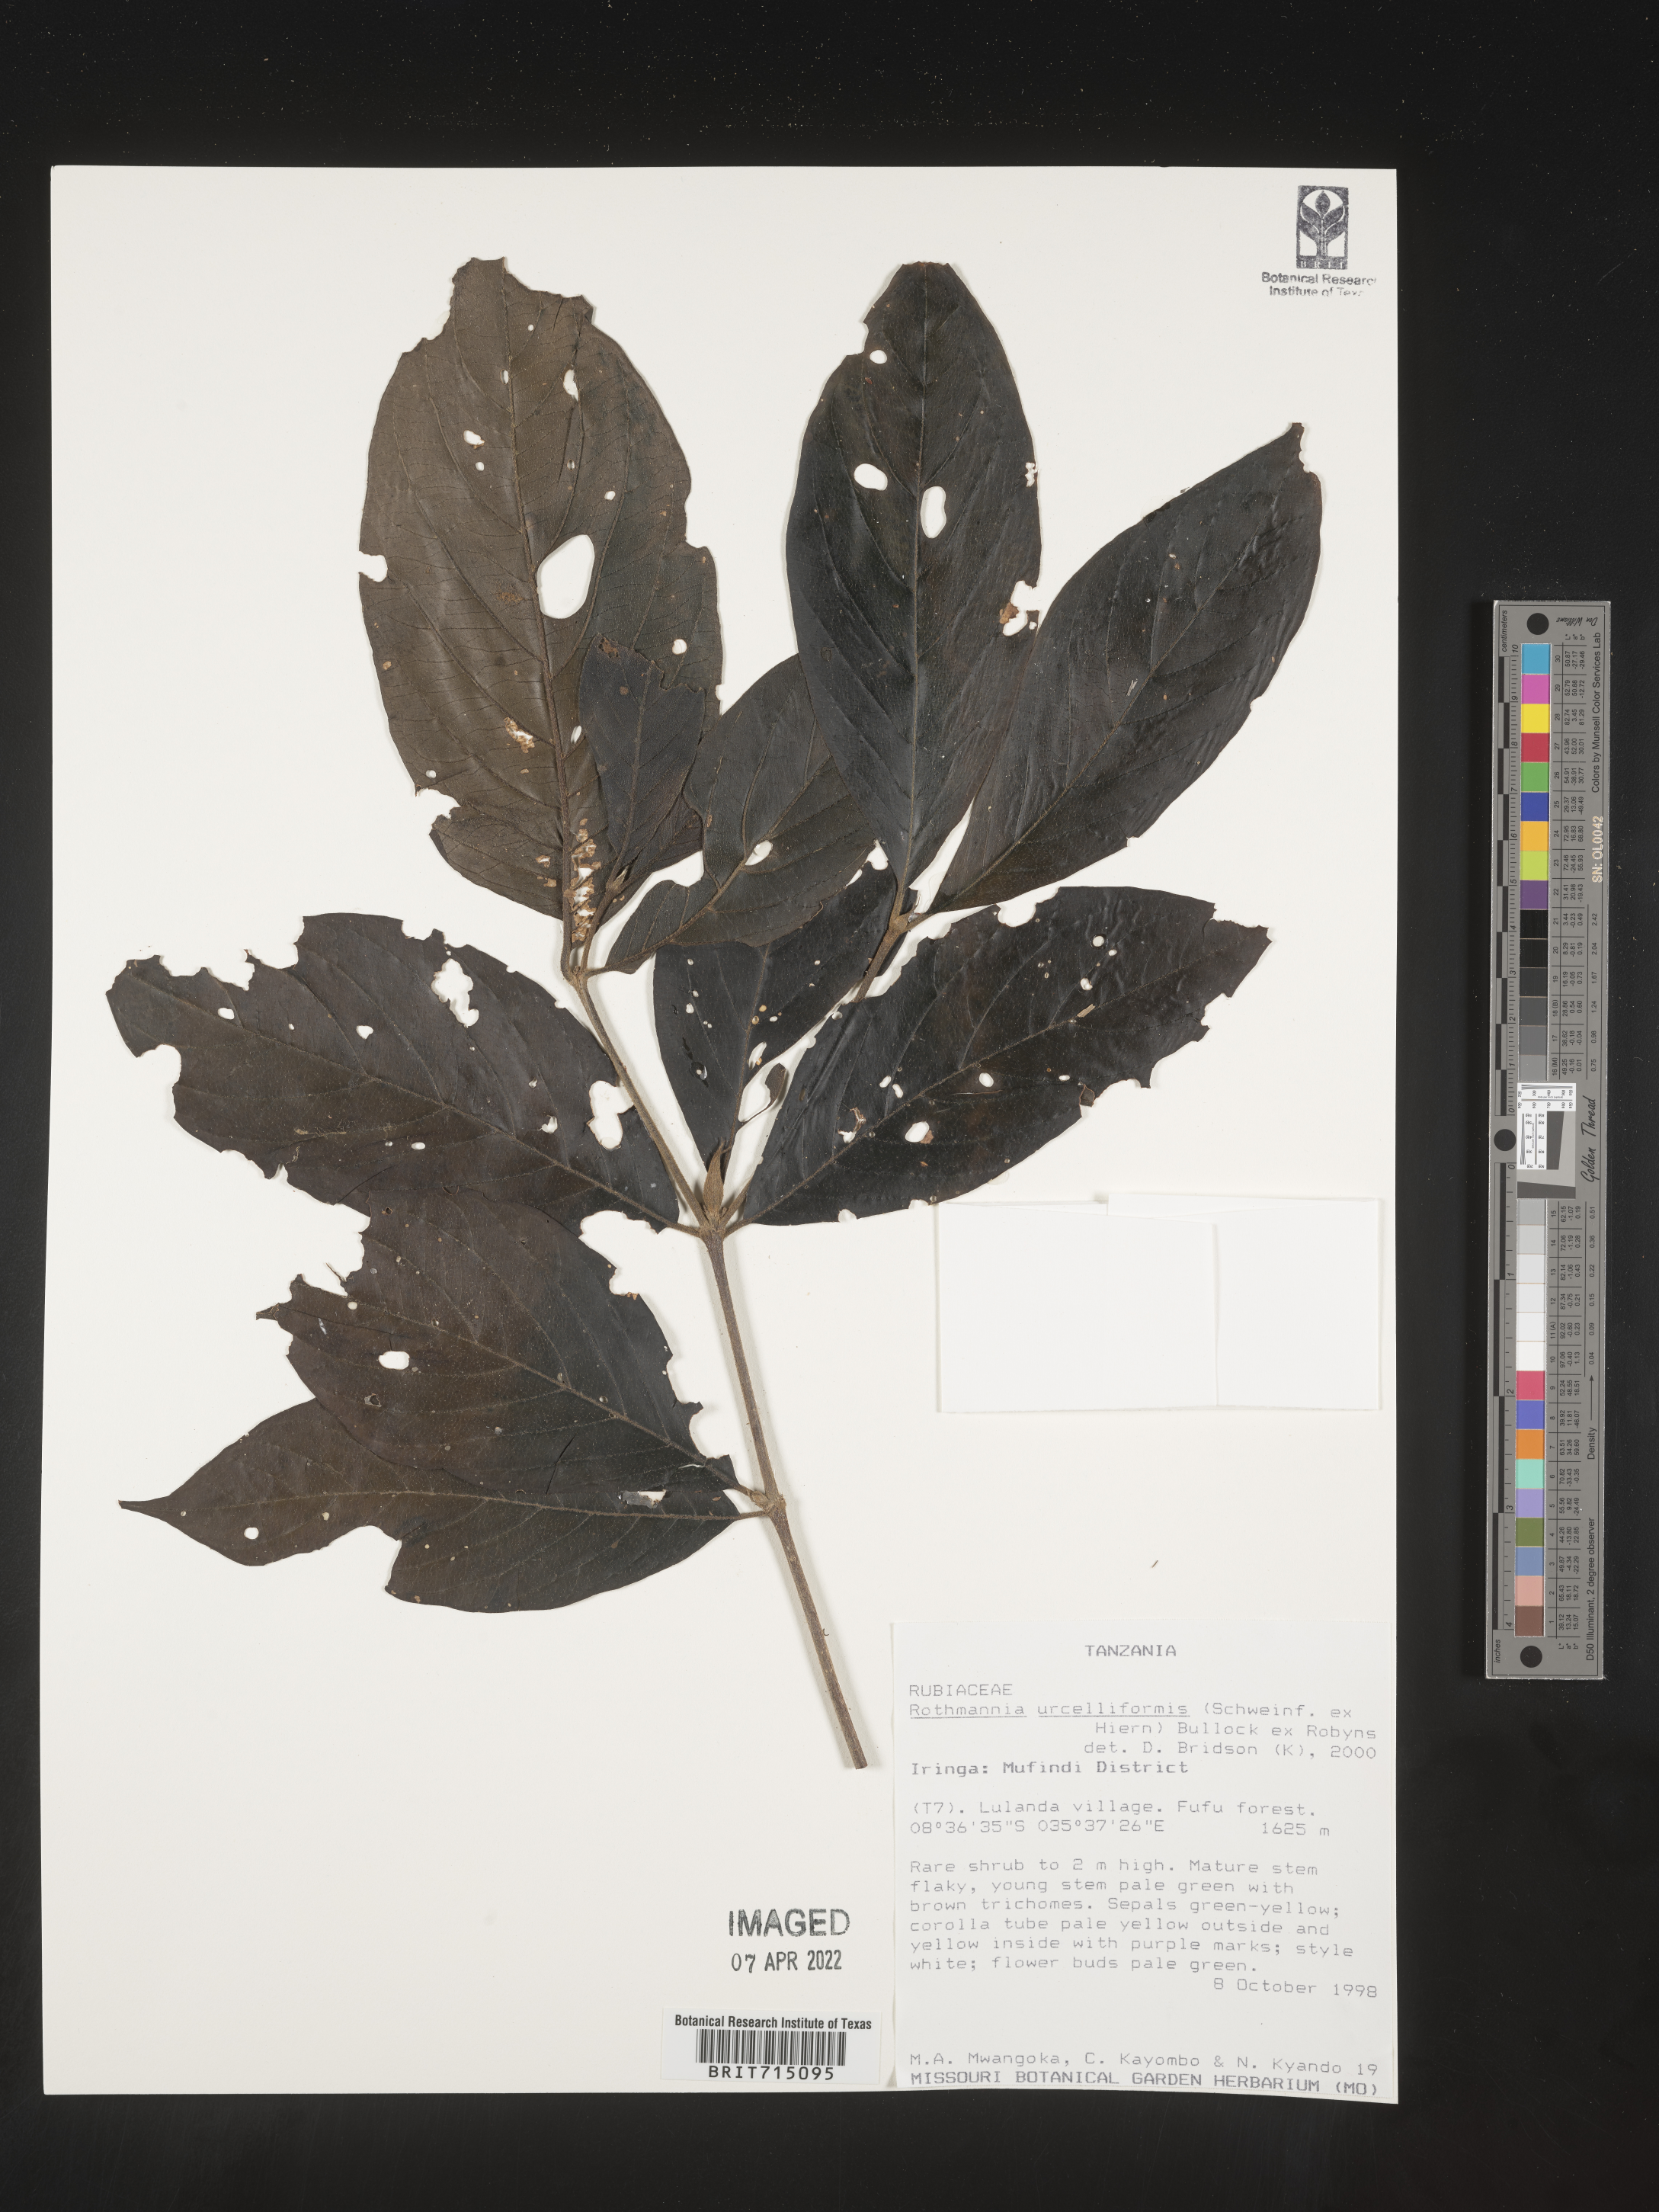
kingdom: Plantae
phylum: Tracheophyta
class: Magnoliopsida
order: Gentianales
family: Rubiaceae
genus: Rothmannia
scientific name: Rothmannia
